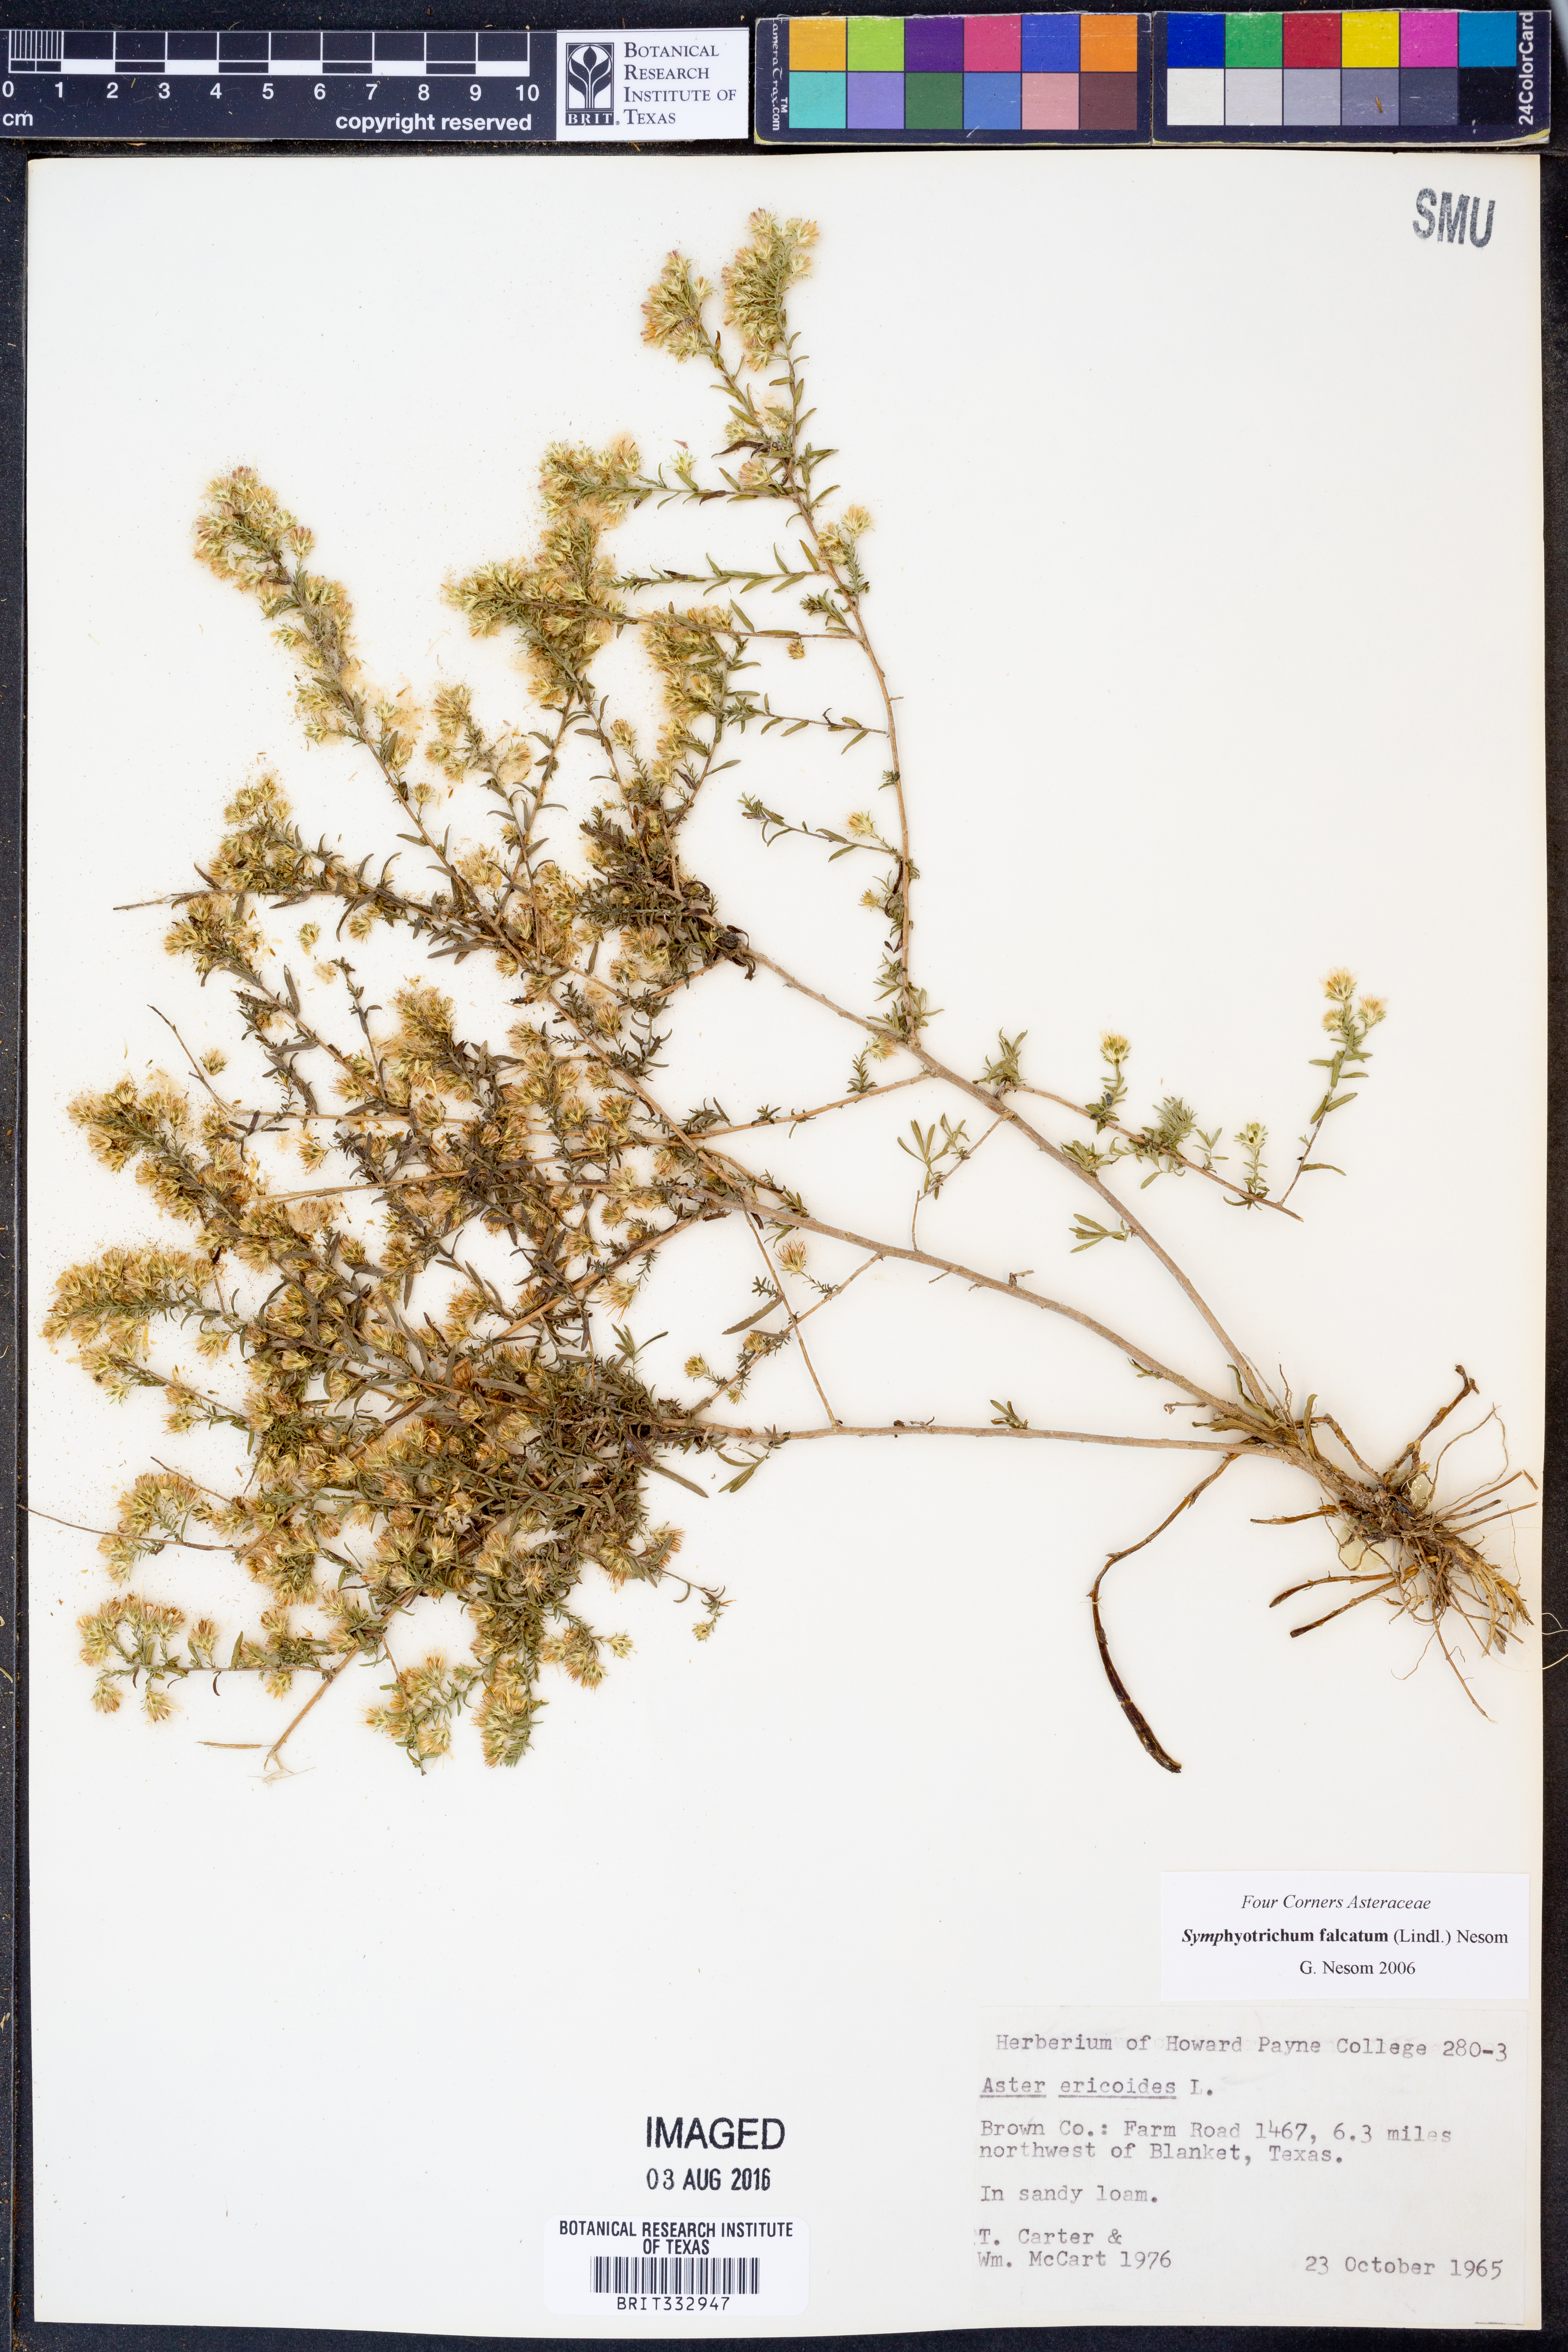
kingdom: Plantae
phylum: Tracheophyta
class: Magnoliopsida
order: Asterales
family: Asteraceae
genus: Symphyotrichum
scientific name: Symphyotrichum falcatum
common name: Creeping white prairie aster
